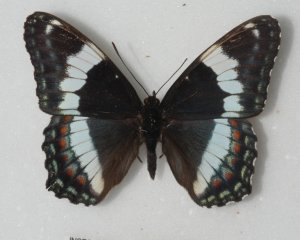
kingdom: Animalia
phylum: Arthropoda
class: Insecta
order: Lepidoptera
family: Nymphalidae
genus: Limenitis
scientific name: Limenitis arthemis
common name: Red-spotted Admiral
